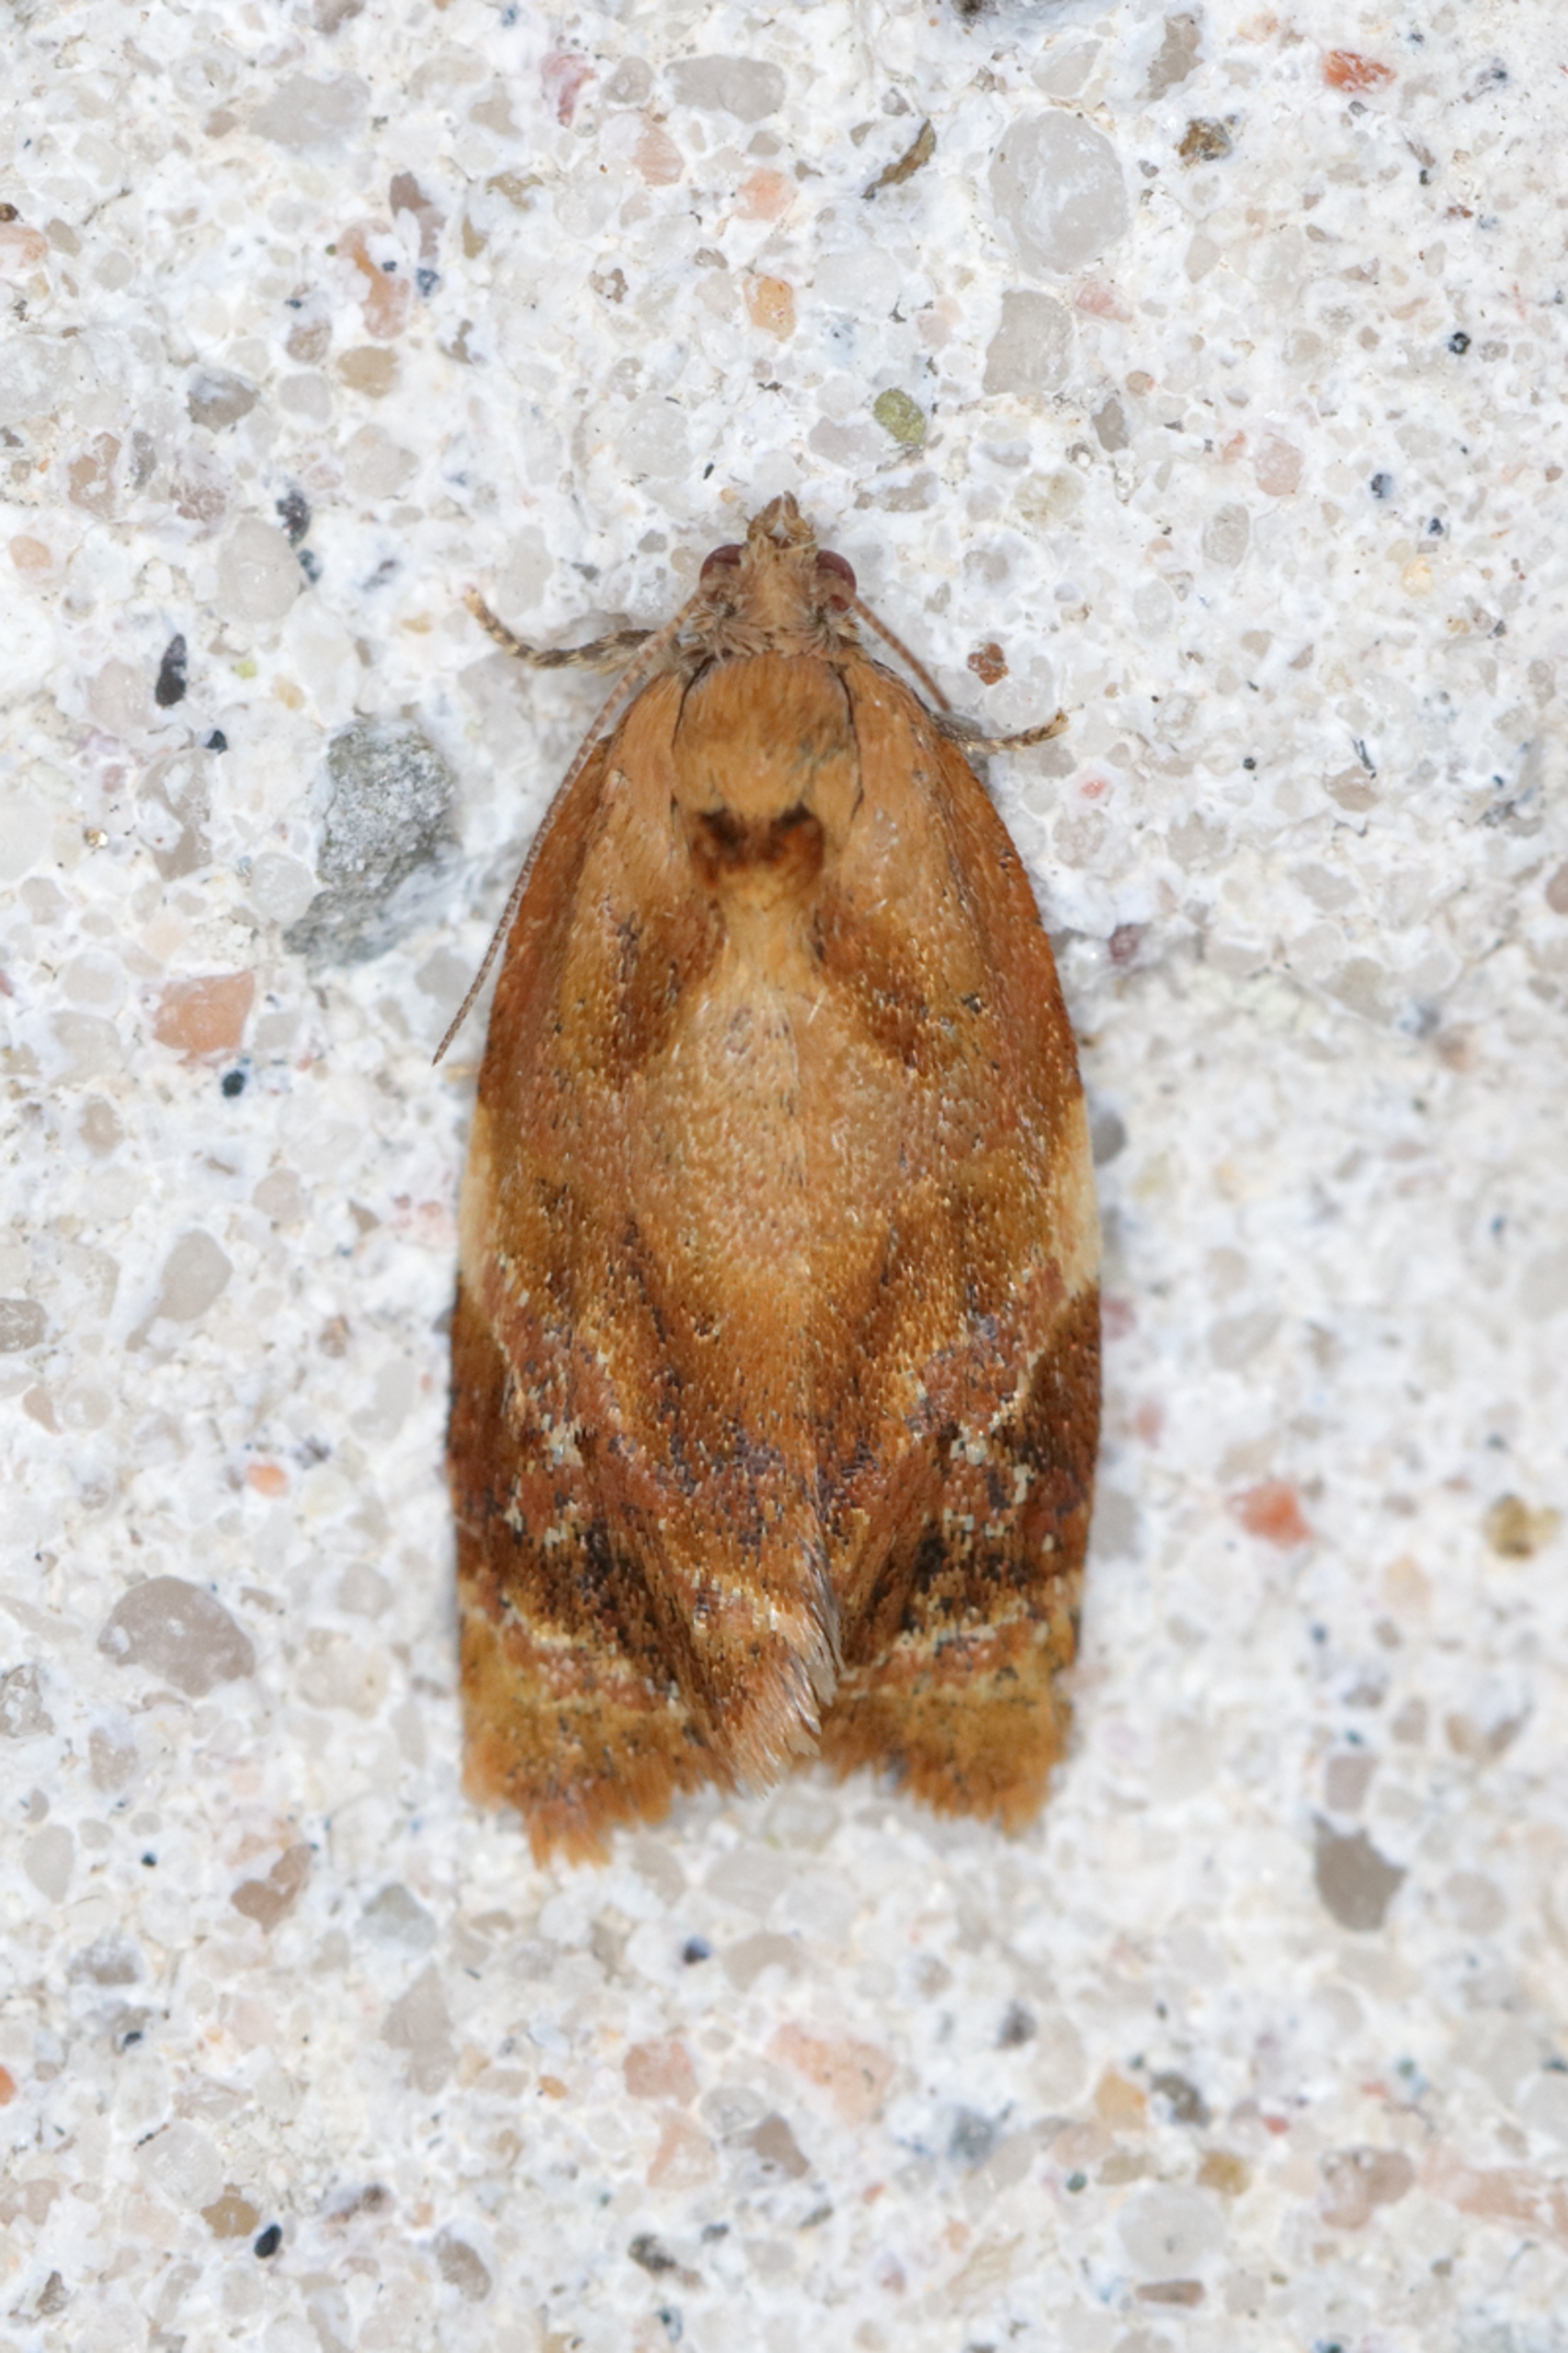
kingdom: Animalia
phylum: Arthropoda
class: Insecta
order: Lepidoptera
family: Tortricidae
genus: Ditula
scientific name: Ditula angustiorana
